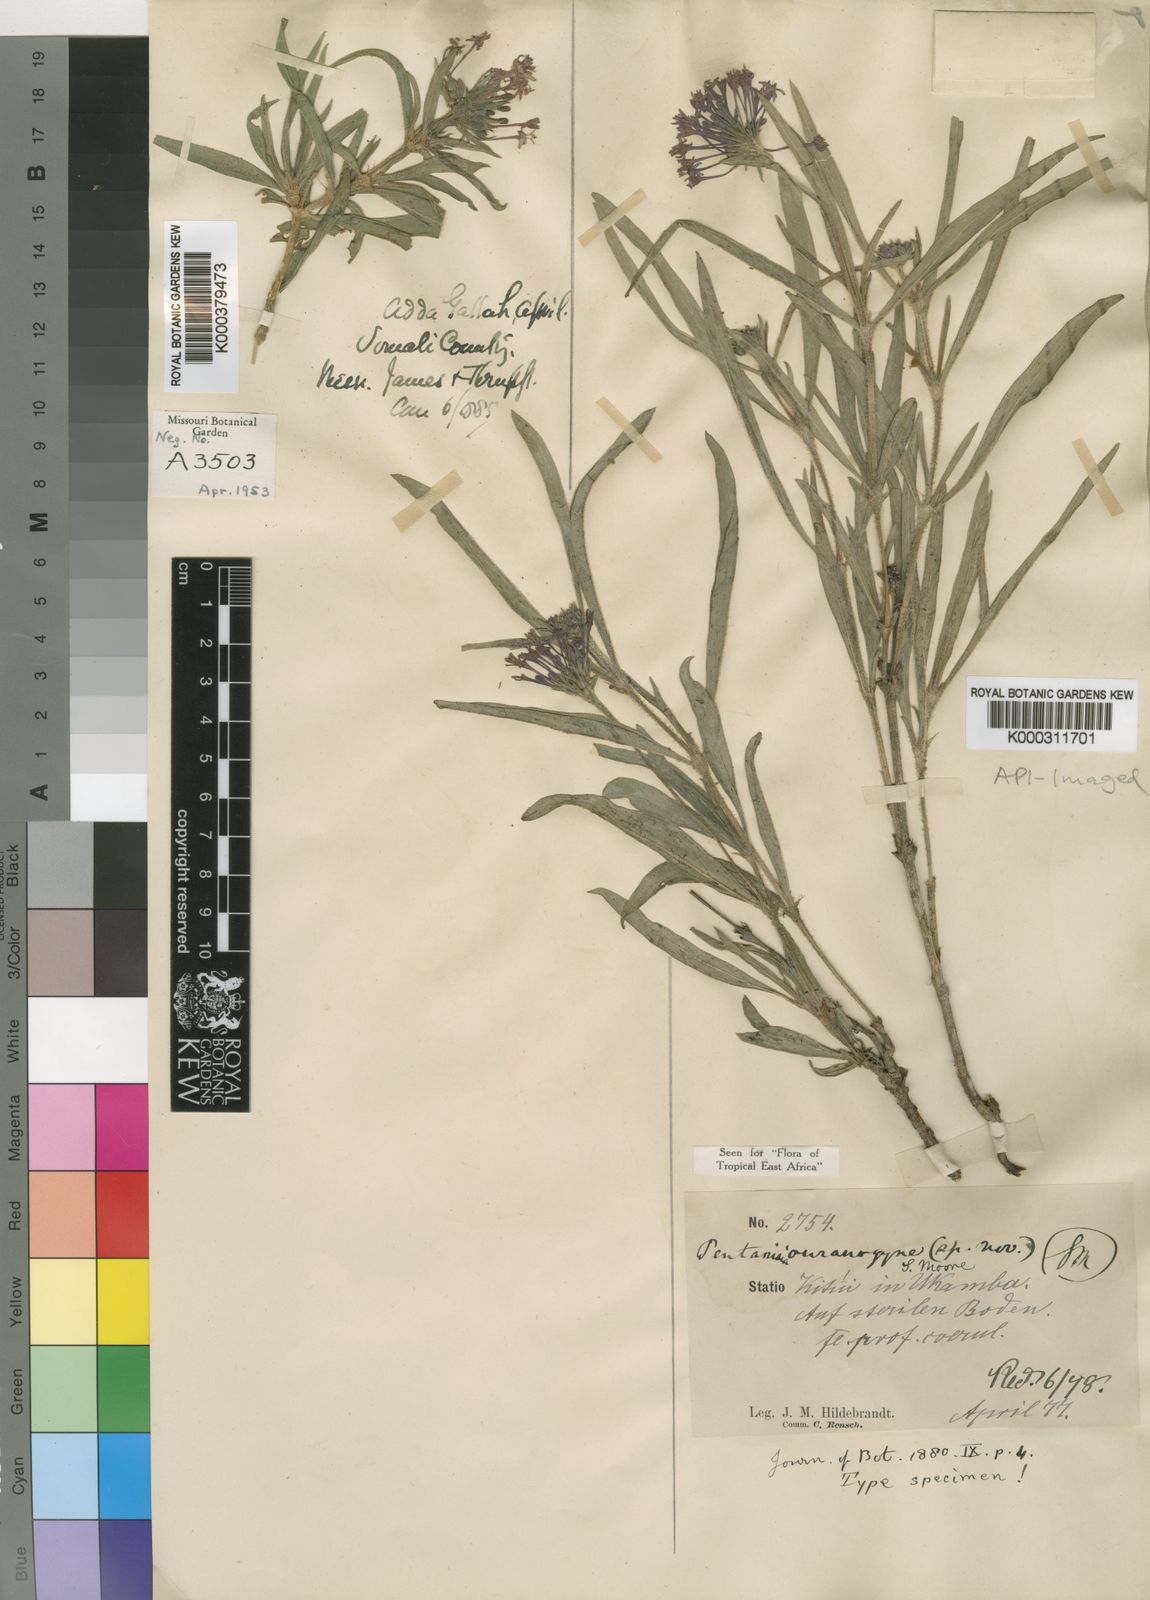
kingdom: Plantae
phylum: Tracheophyta
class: Magnoliopsida
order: Gentianales
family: Rubiaceae
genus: Pentanisia
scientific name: Pentanisia ouranogyne
